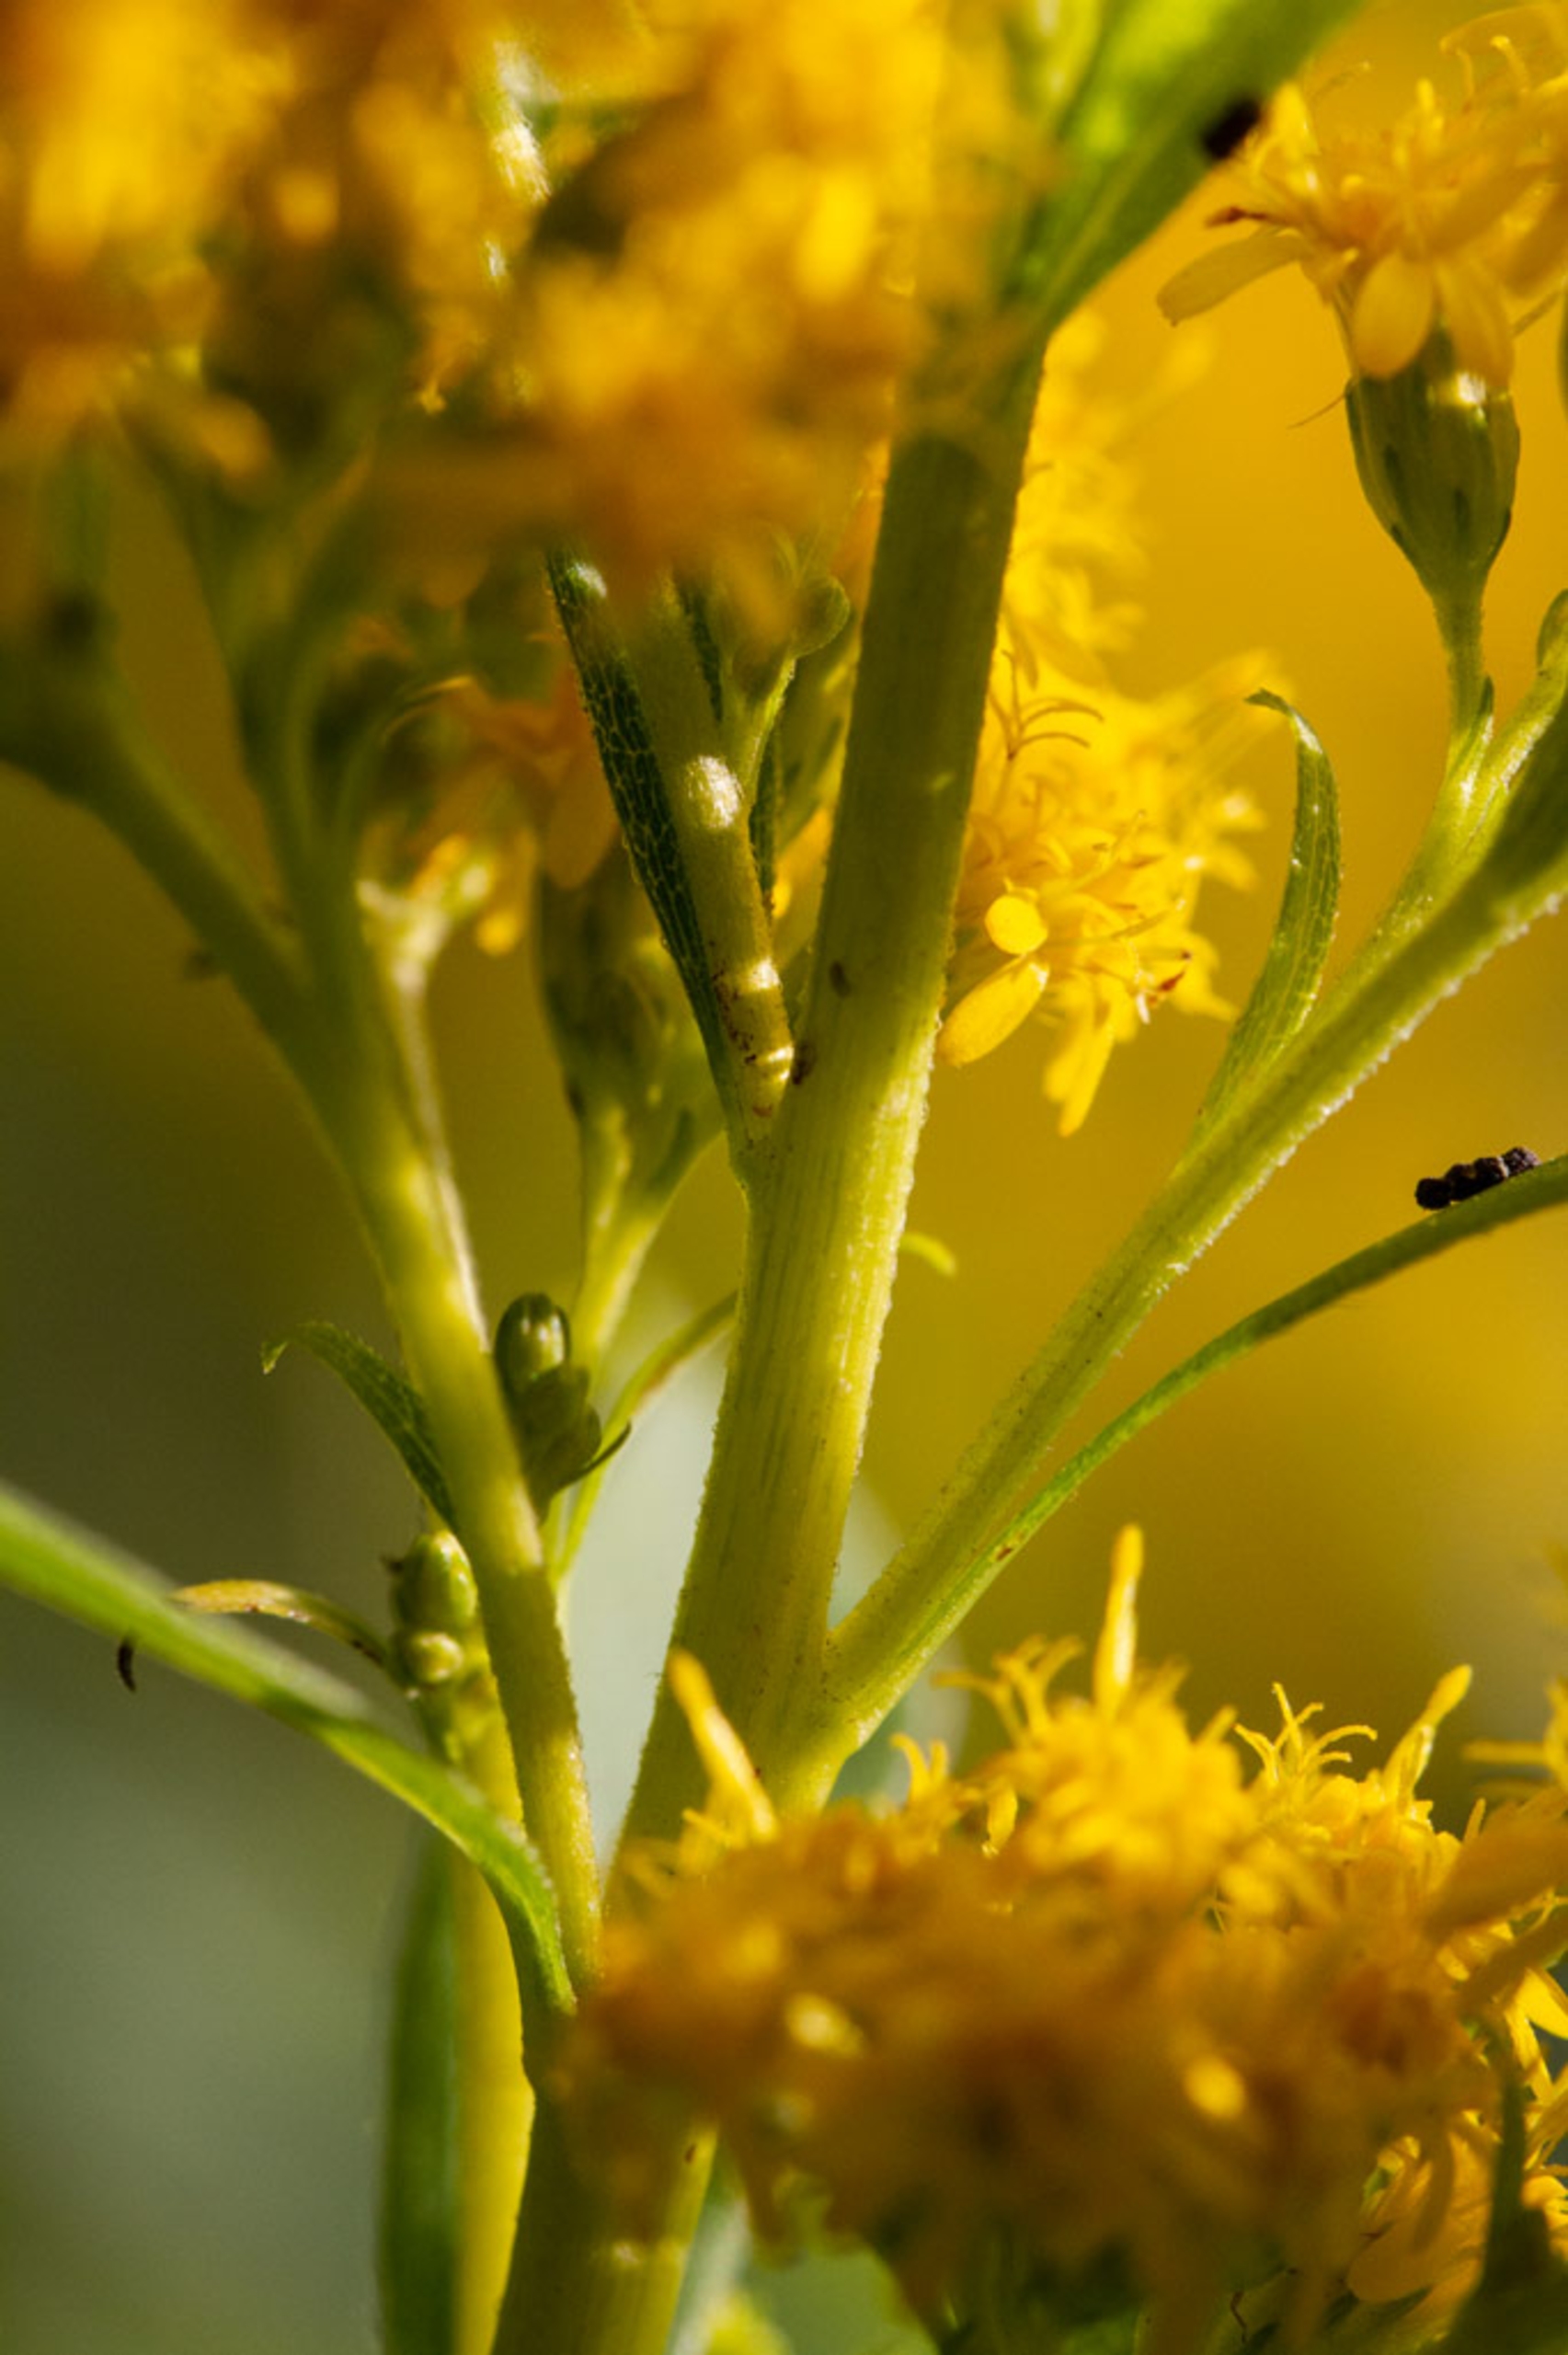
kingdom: Plantae
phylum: Tracheophyta
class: Magnoliopsida
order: Asterales
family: Asteraceae
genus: Solidago
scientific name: Solidago gigantea
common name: Sildig gyldenris
